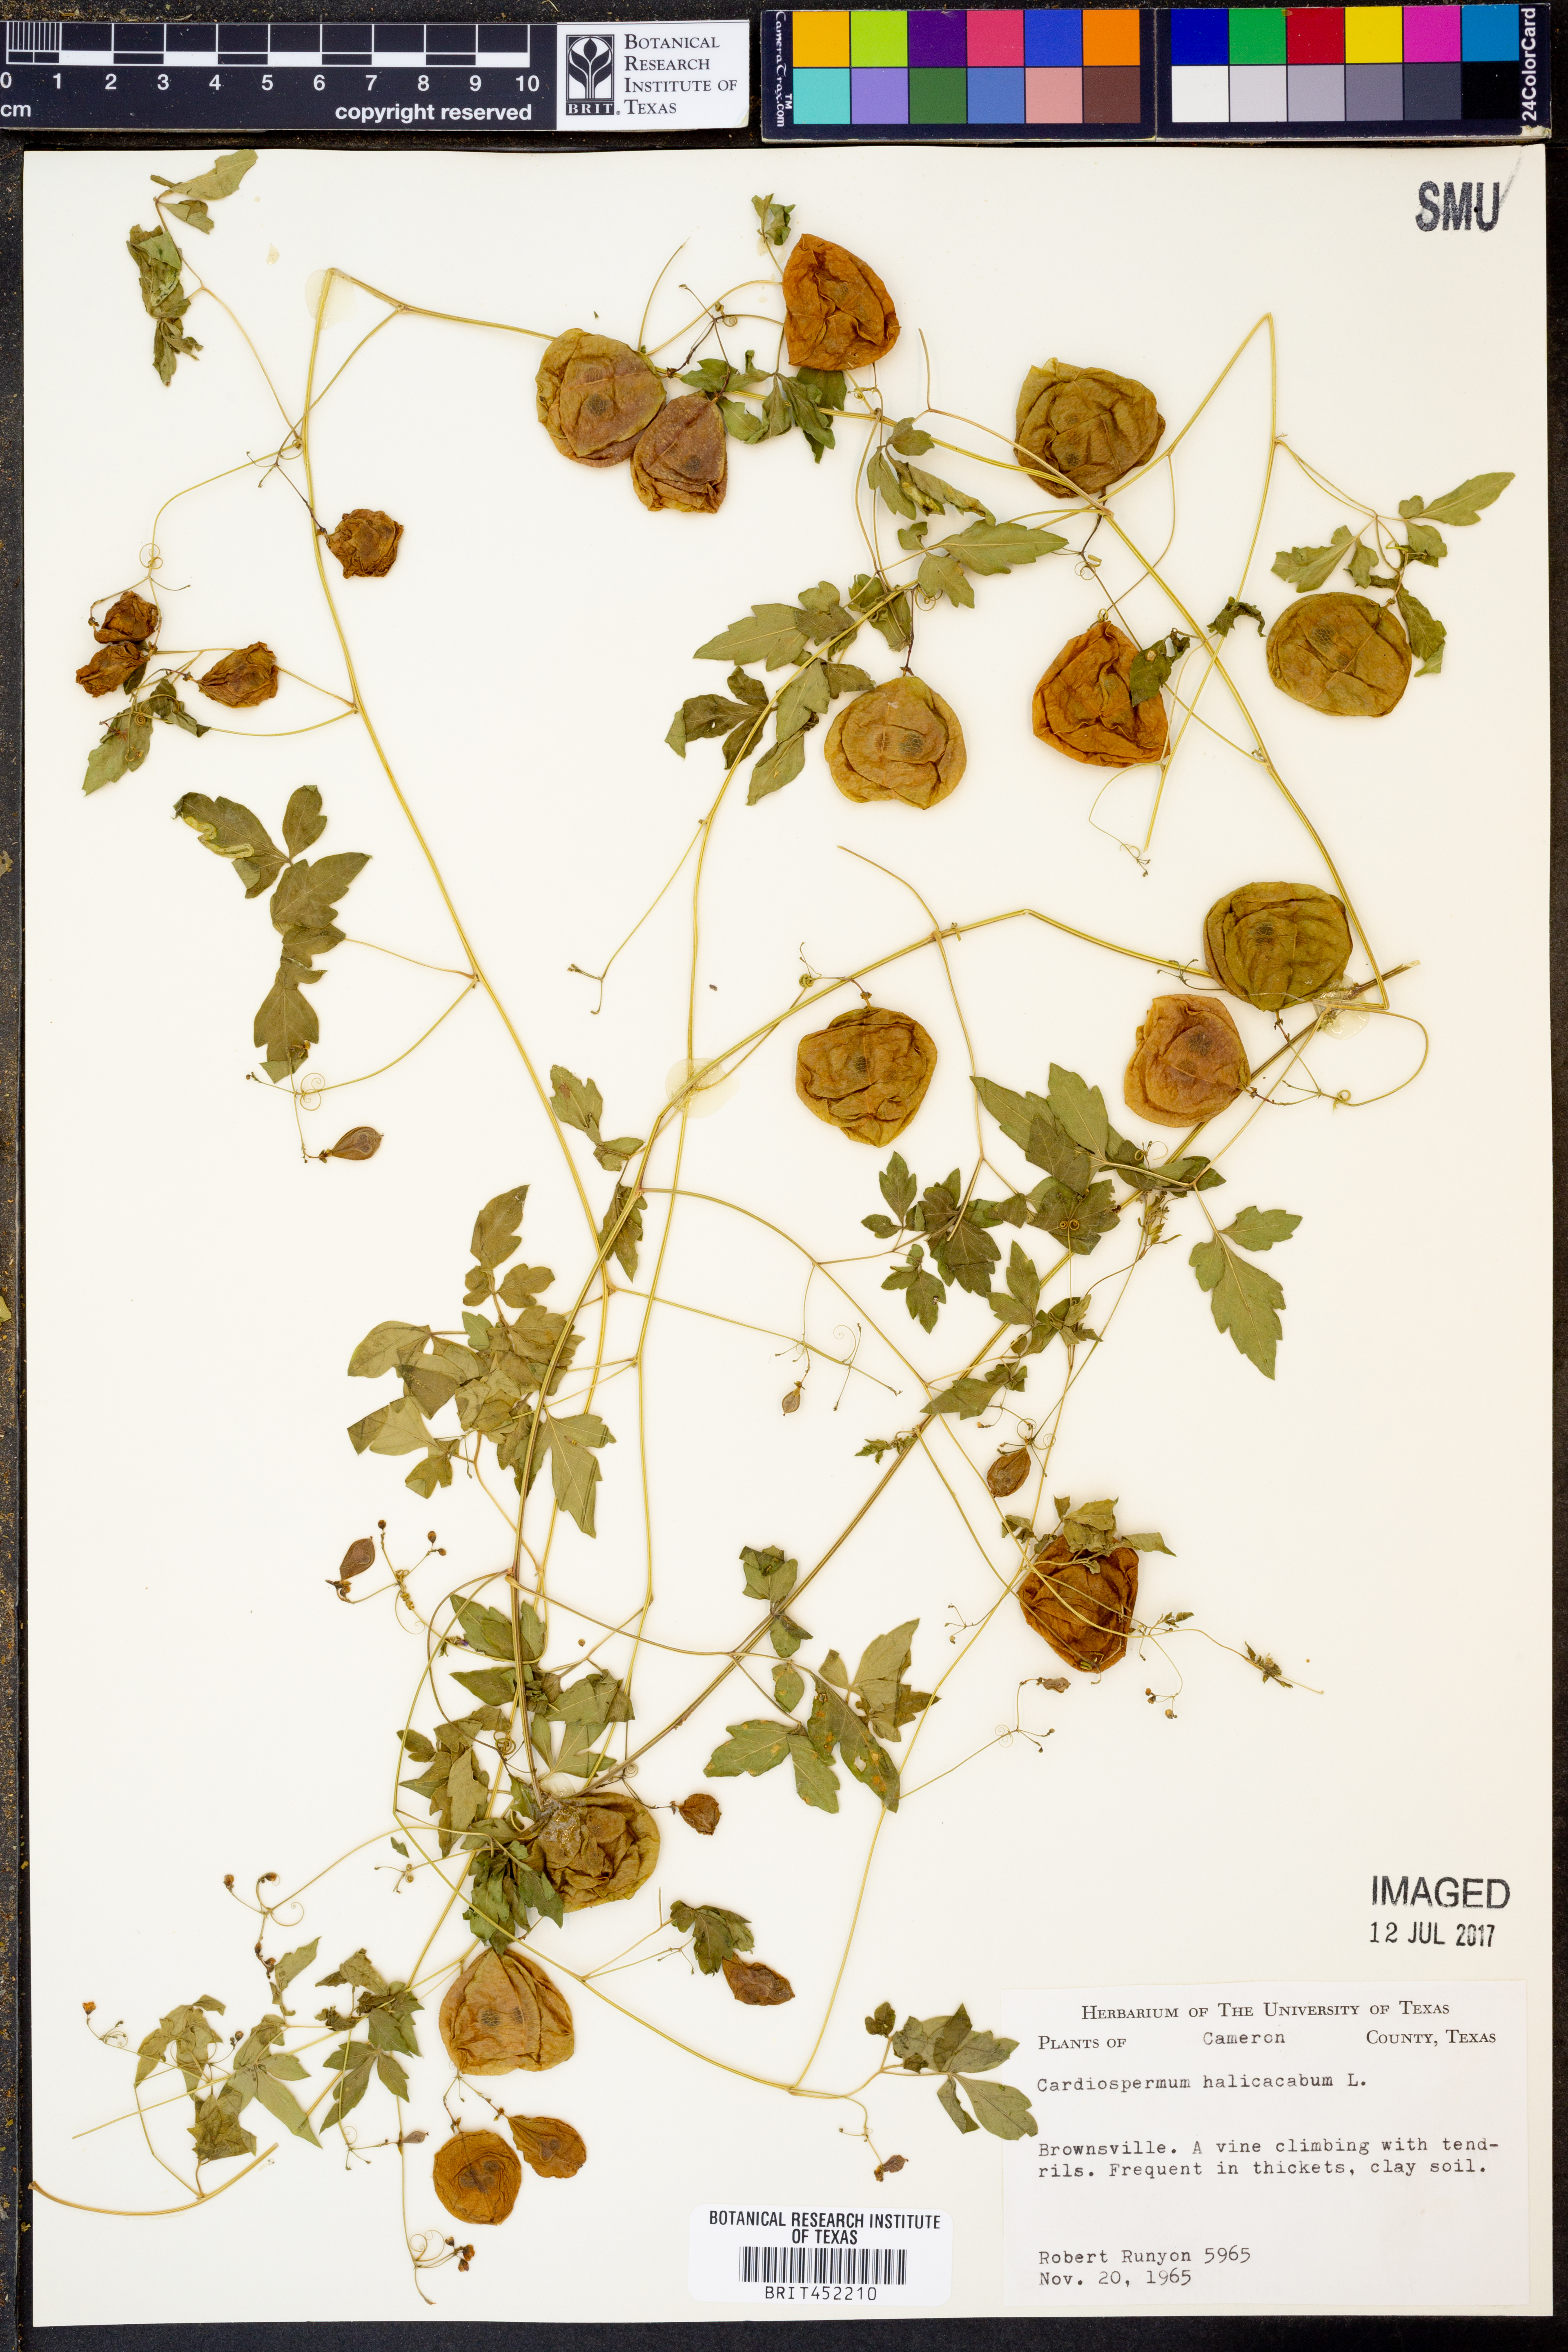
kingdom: Plantae
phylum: Tracheophyta
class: Magnoliopsida
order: Sapindales
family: Sapindaceae
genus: Cardiospermum
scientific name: Cardiospermum halicacabum
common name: Balloon vine
